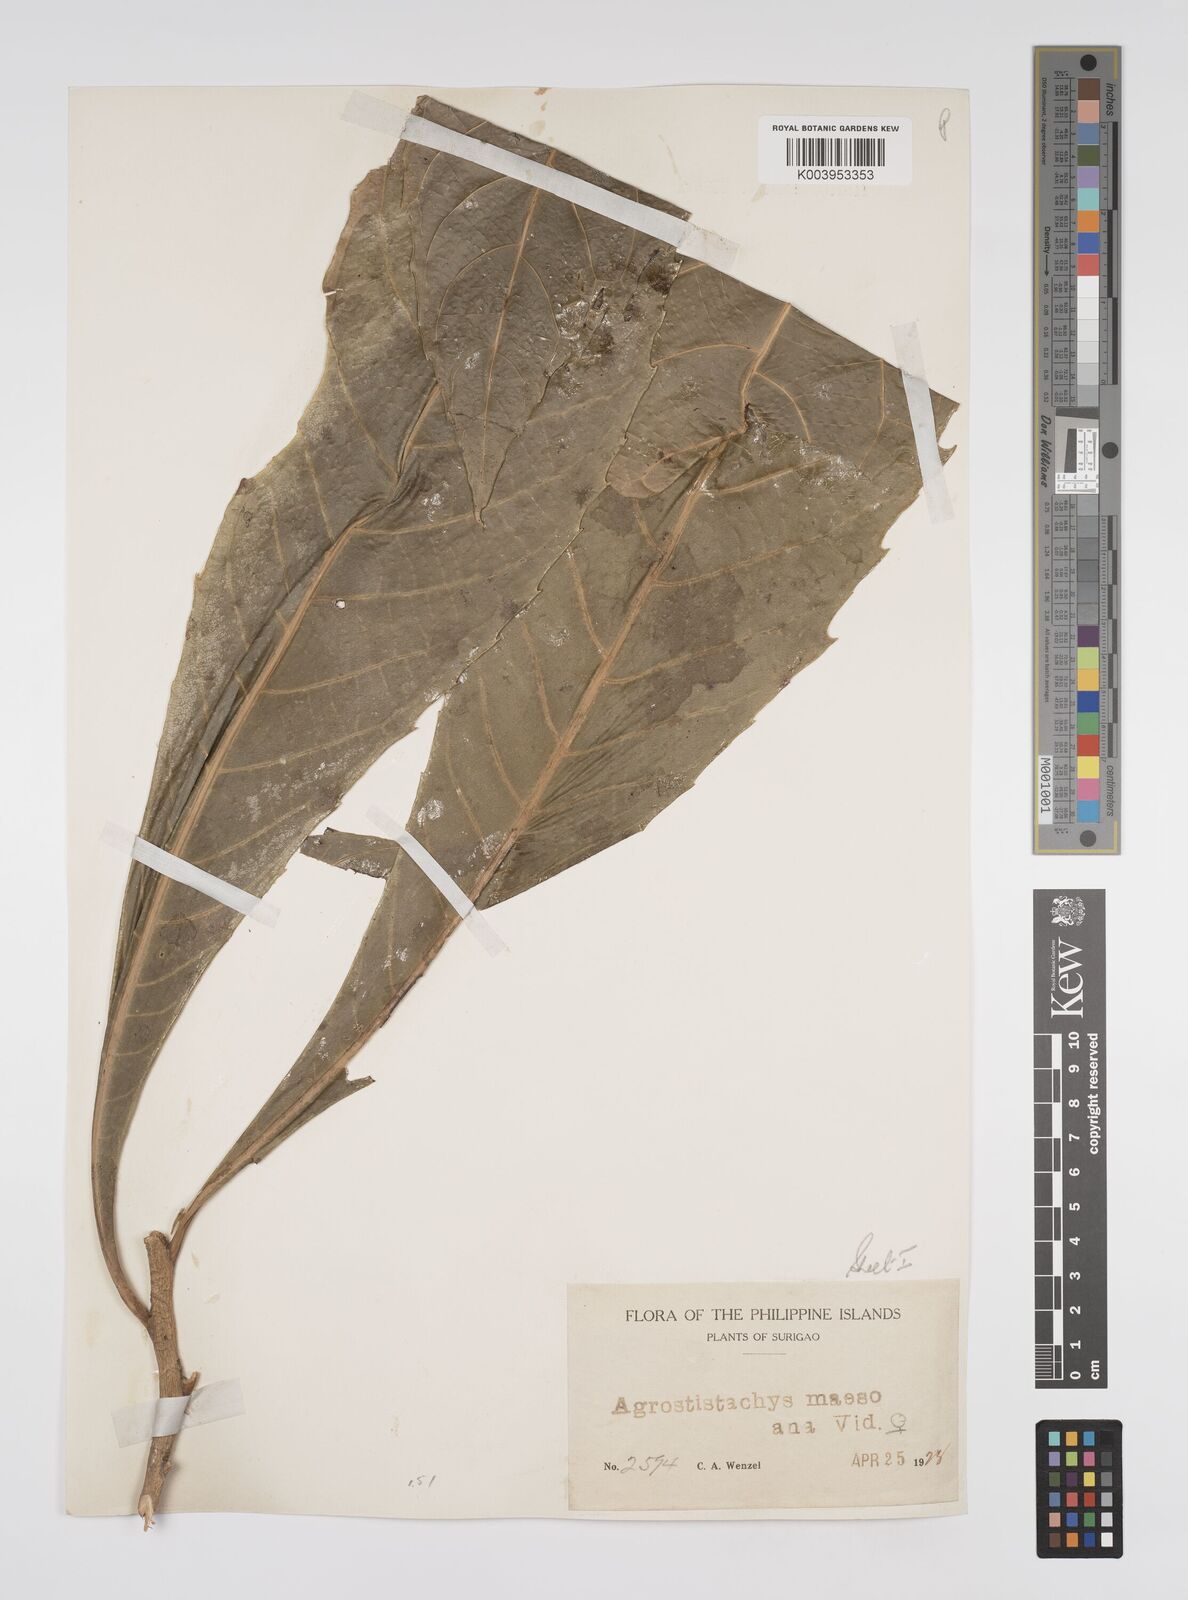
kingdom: Plantae
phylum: Tracheophyta
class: Magnoliopsida
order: Malpighiales
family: Euphorbiaceae
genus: Agrostistachys
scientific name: Agrostistachys indica
